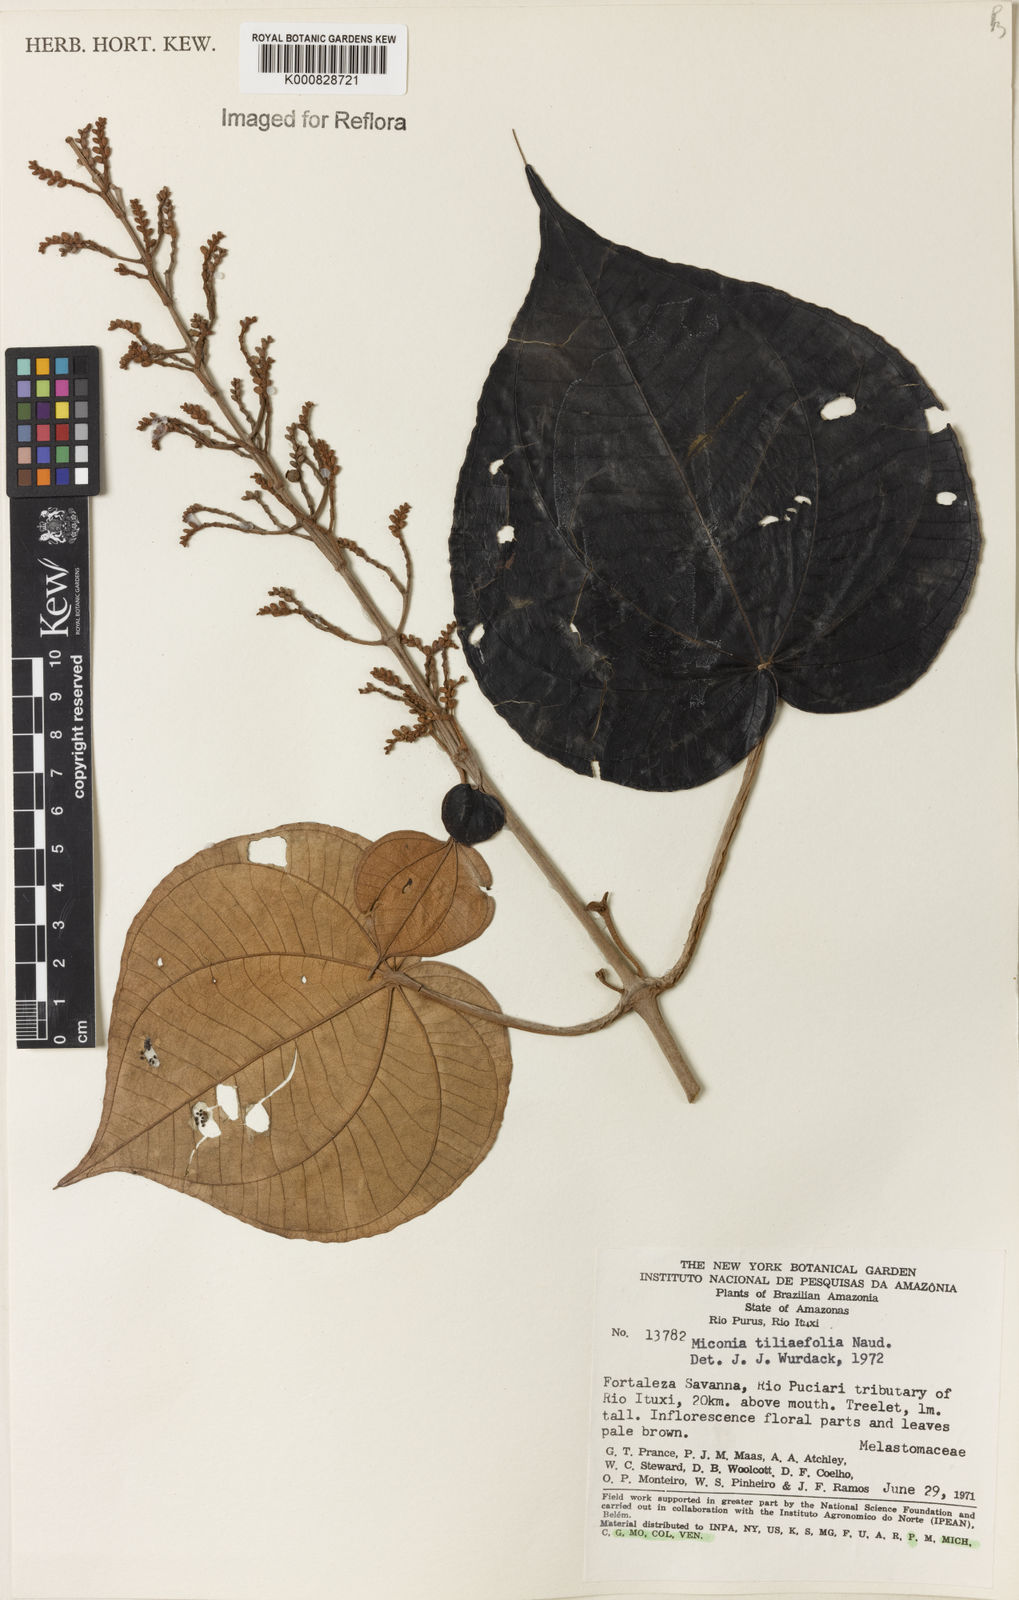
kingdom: Plantae
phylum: Tracheophyta
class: Magnoliopsida
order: Myrtales
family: Melastomataceae
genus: Miconia
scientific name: Miconia
